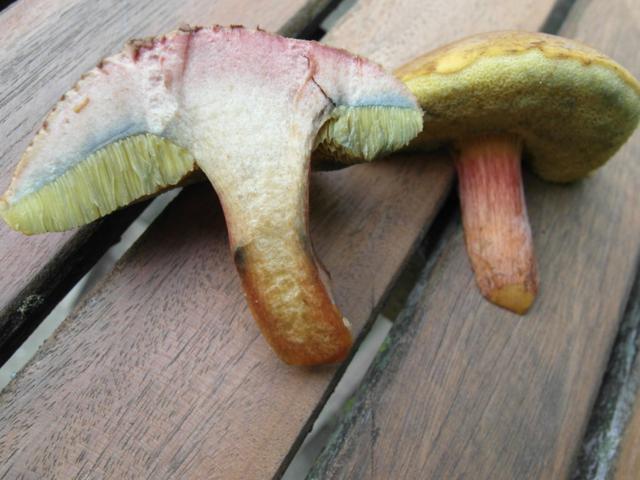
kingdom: Fungi
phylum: Basidiomycota
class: Agaricomycetes
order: Boletales
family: Boletaceae
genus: Hortiboletus
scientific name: Hortiboletus bubalinus
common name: aurora-rørhat
